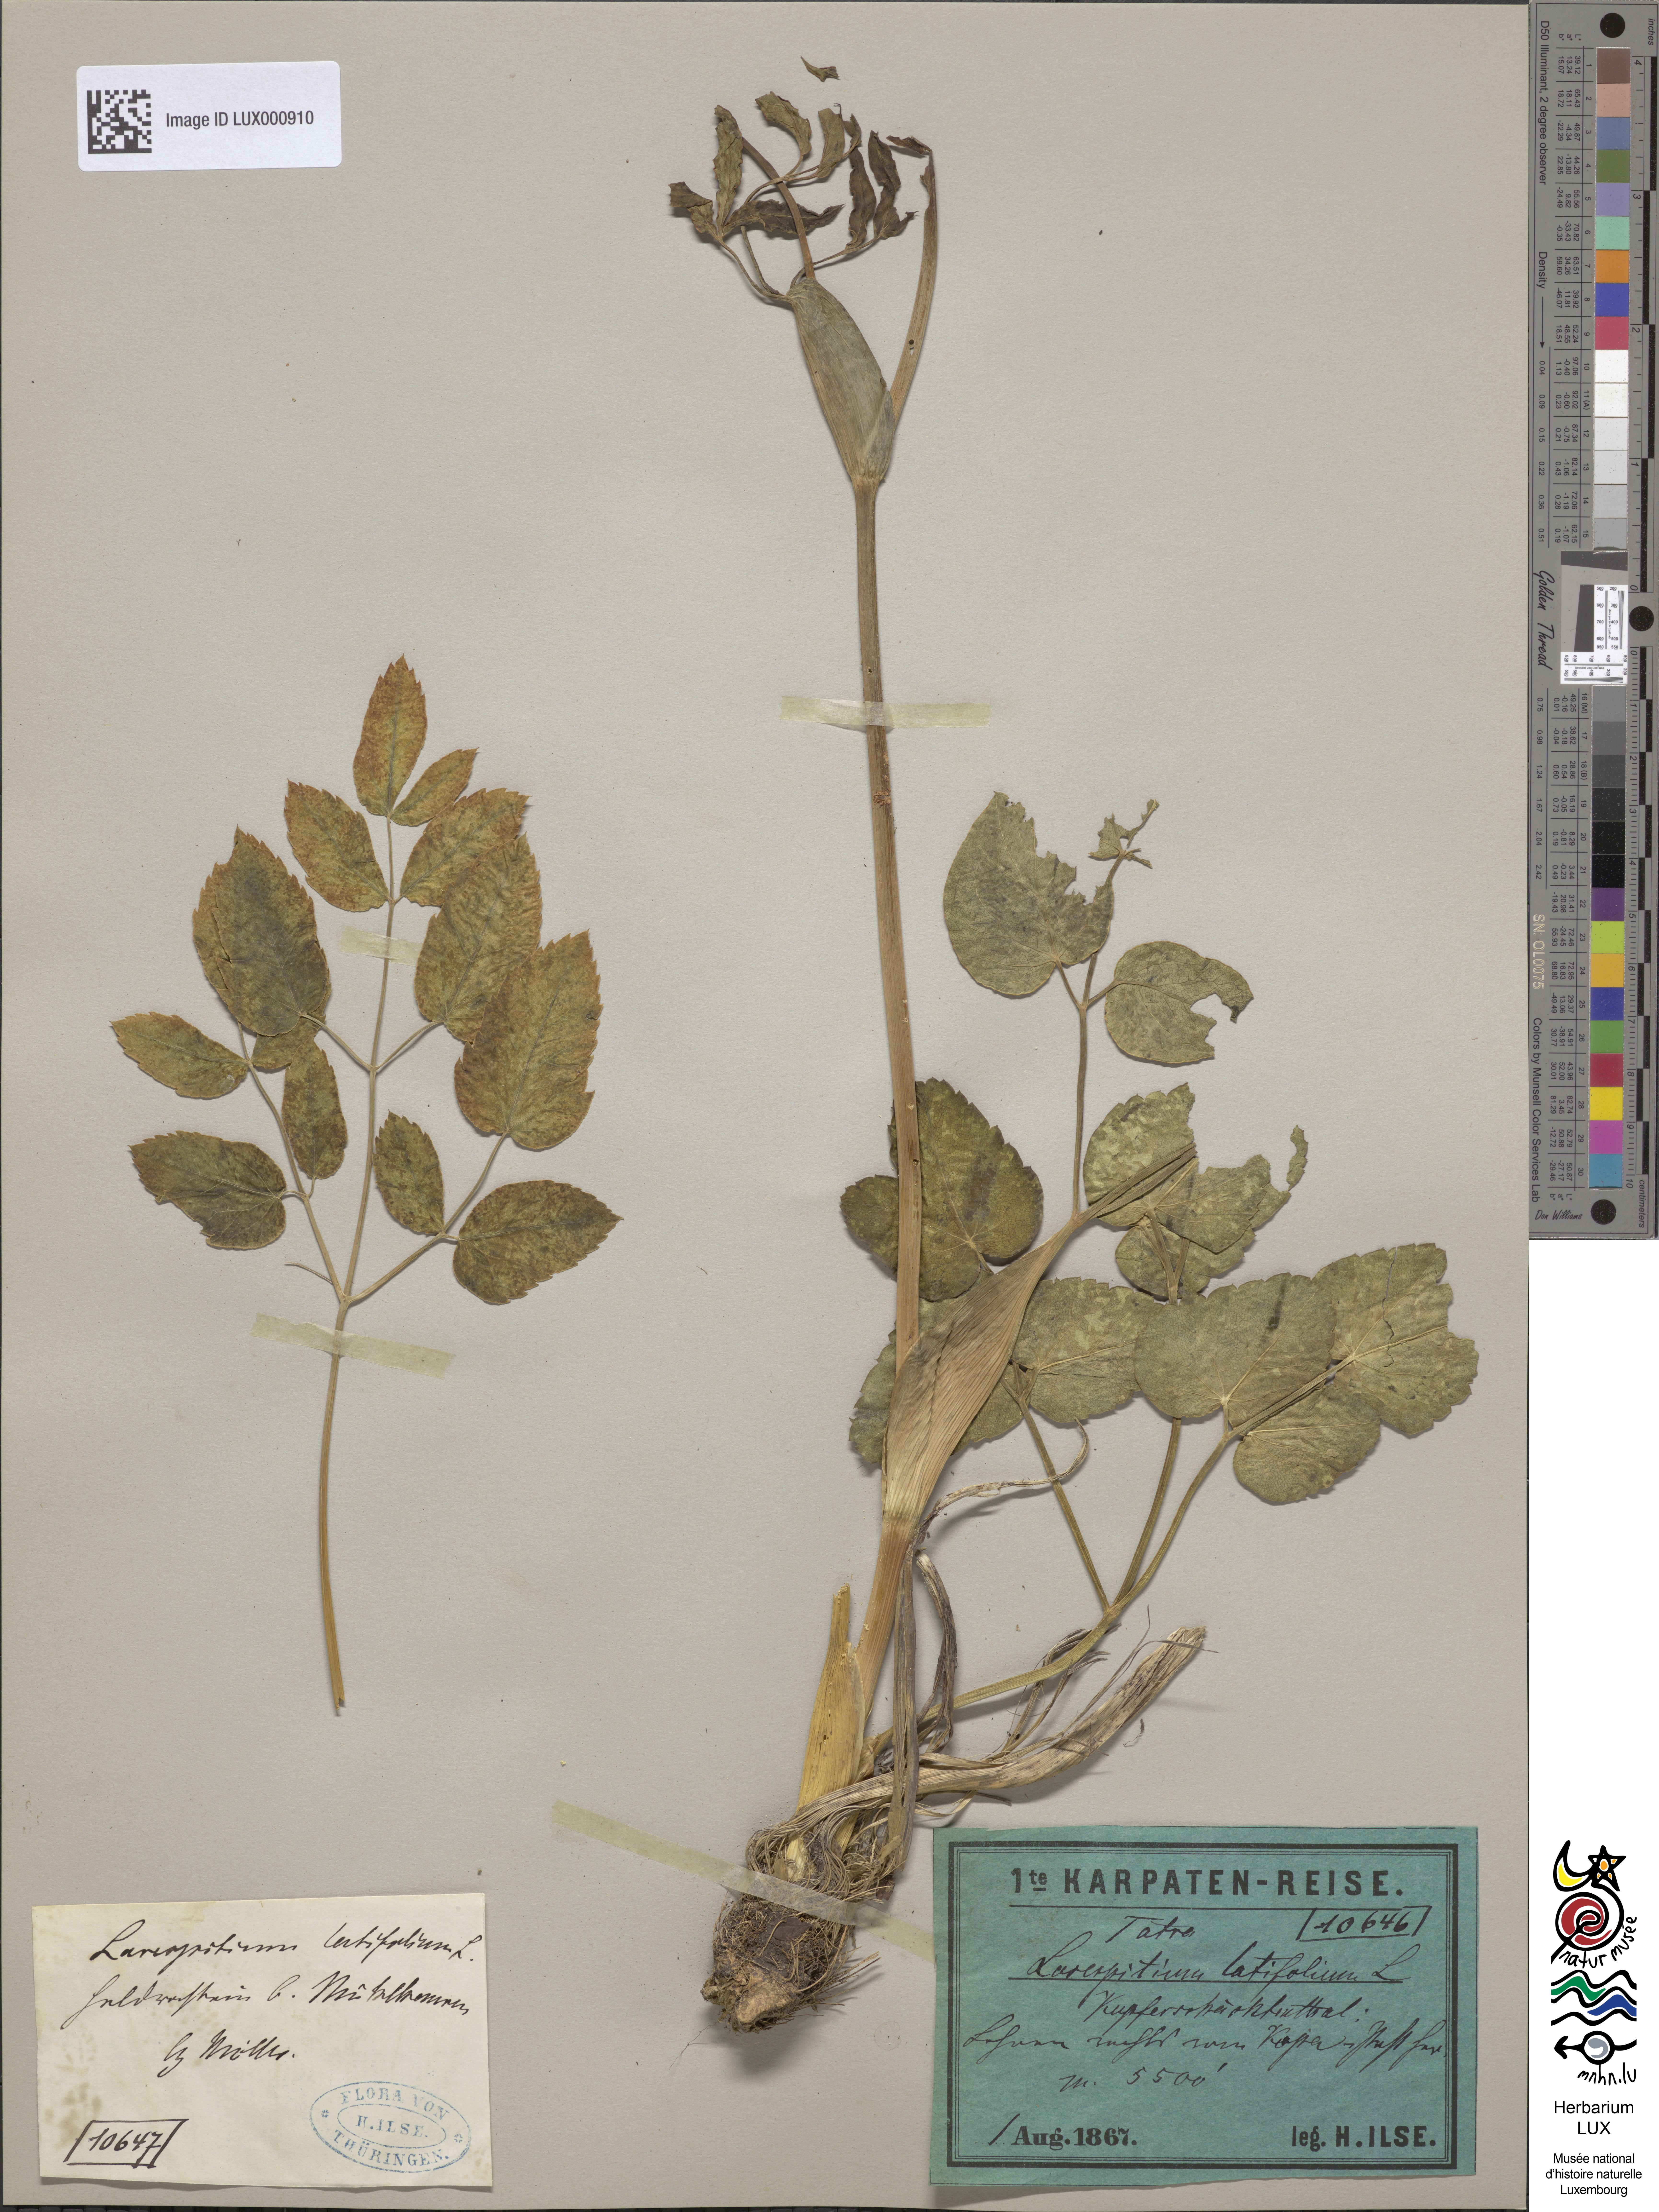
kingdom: Plantae
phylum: Tracheophyta
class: Magnoliopsida
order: Apiales
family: Apiaceae
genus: Laserpitium
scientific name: Laserpitium latifolium
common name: Broadleaf sermountain
